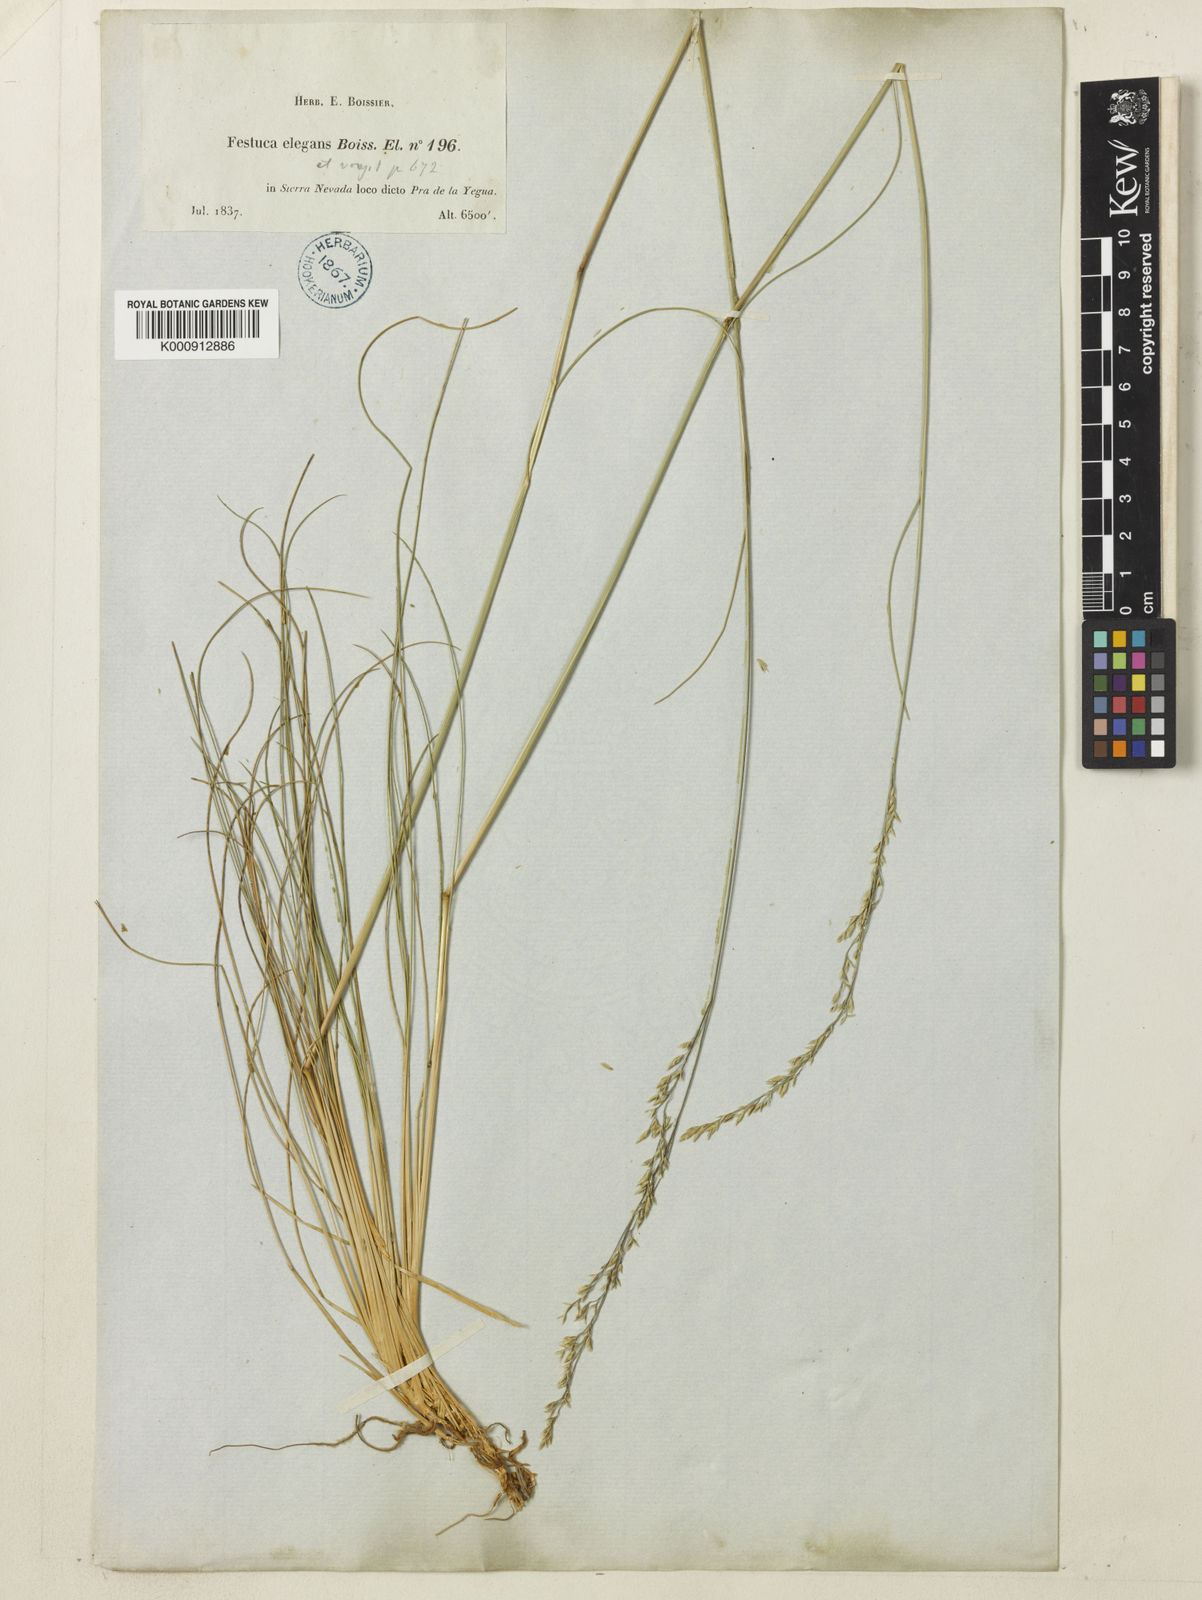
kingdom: Plantae
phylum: Tracheophyta
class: Liliopsida
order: Poales
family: Poaceae
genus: Festuca
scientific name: Festuca elegans
